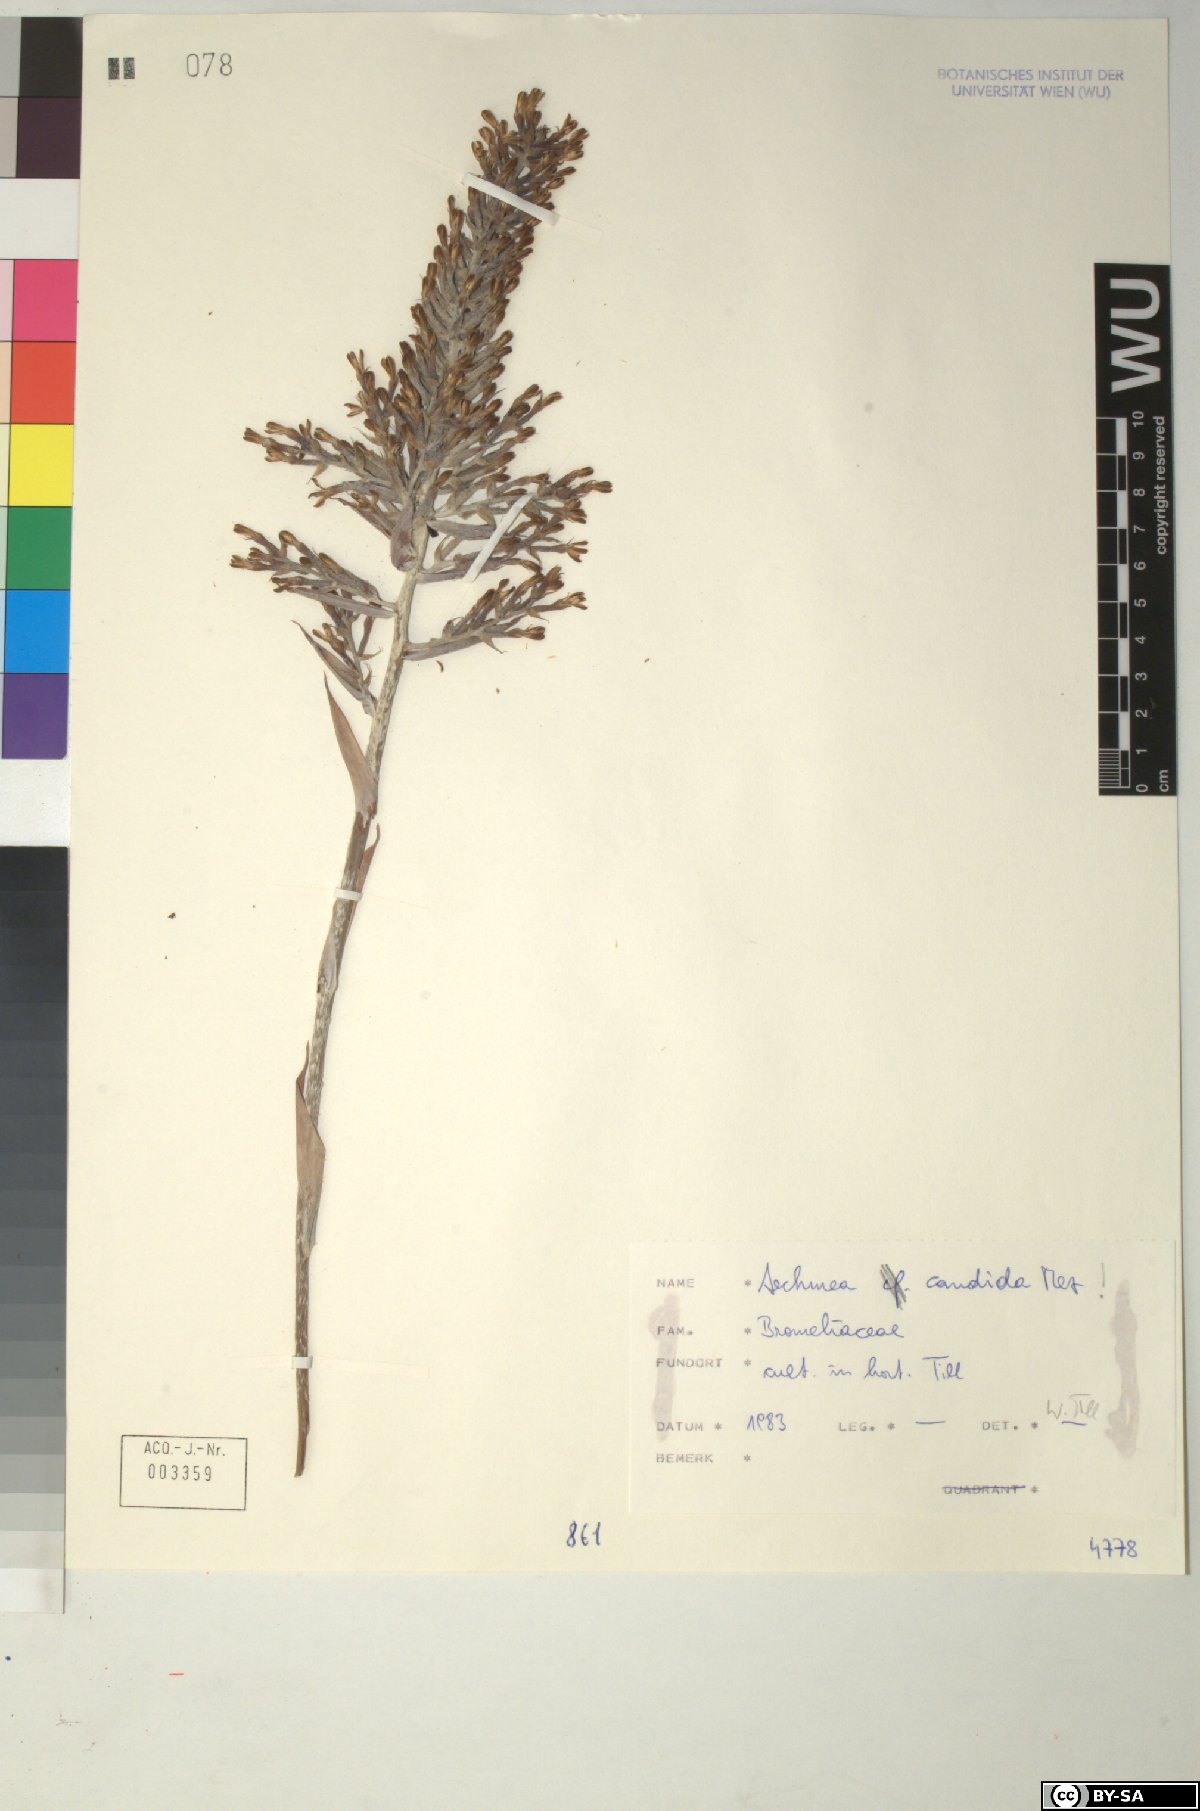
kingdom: Plantae
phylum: Tracheophyta
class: Liliopsida
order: Poales
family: Bromeliaceae
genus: Aechmea
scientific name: Aechmea candida
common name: White bromeliad
